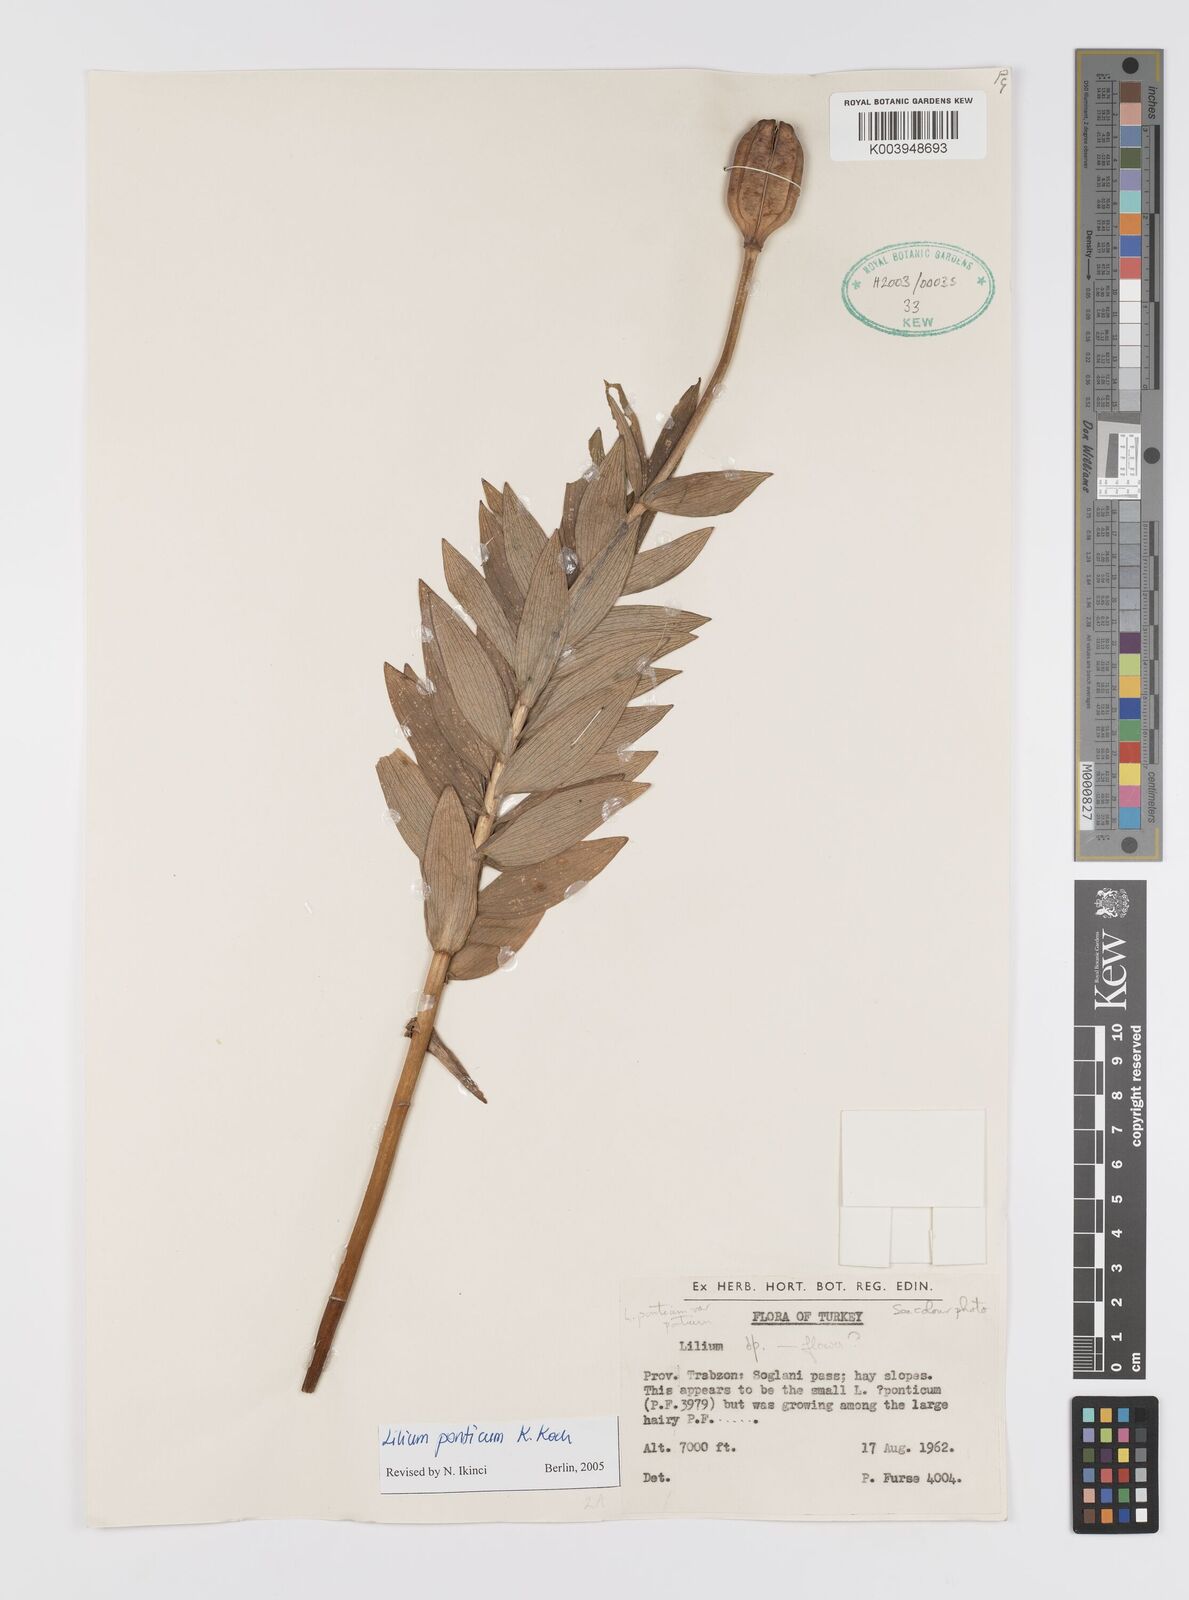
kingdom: Plantae
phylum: Tracheophyta
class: Liliopsida
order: Liliales
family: Liliaceae
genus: Lilium
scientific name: Lilium ponticum
